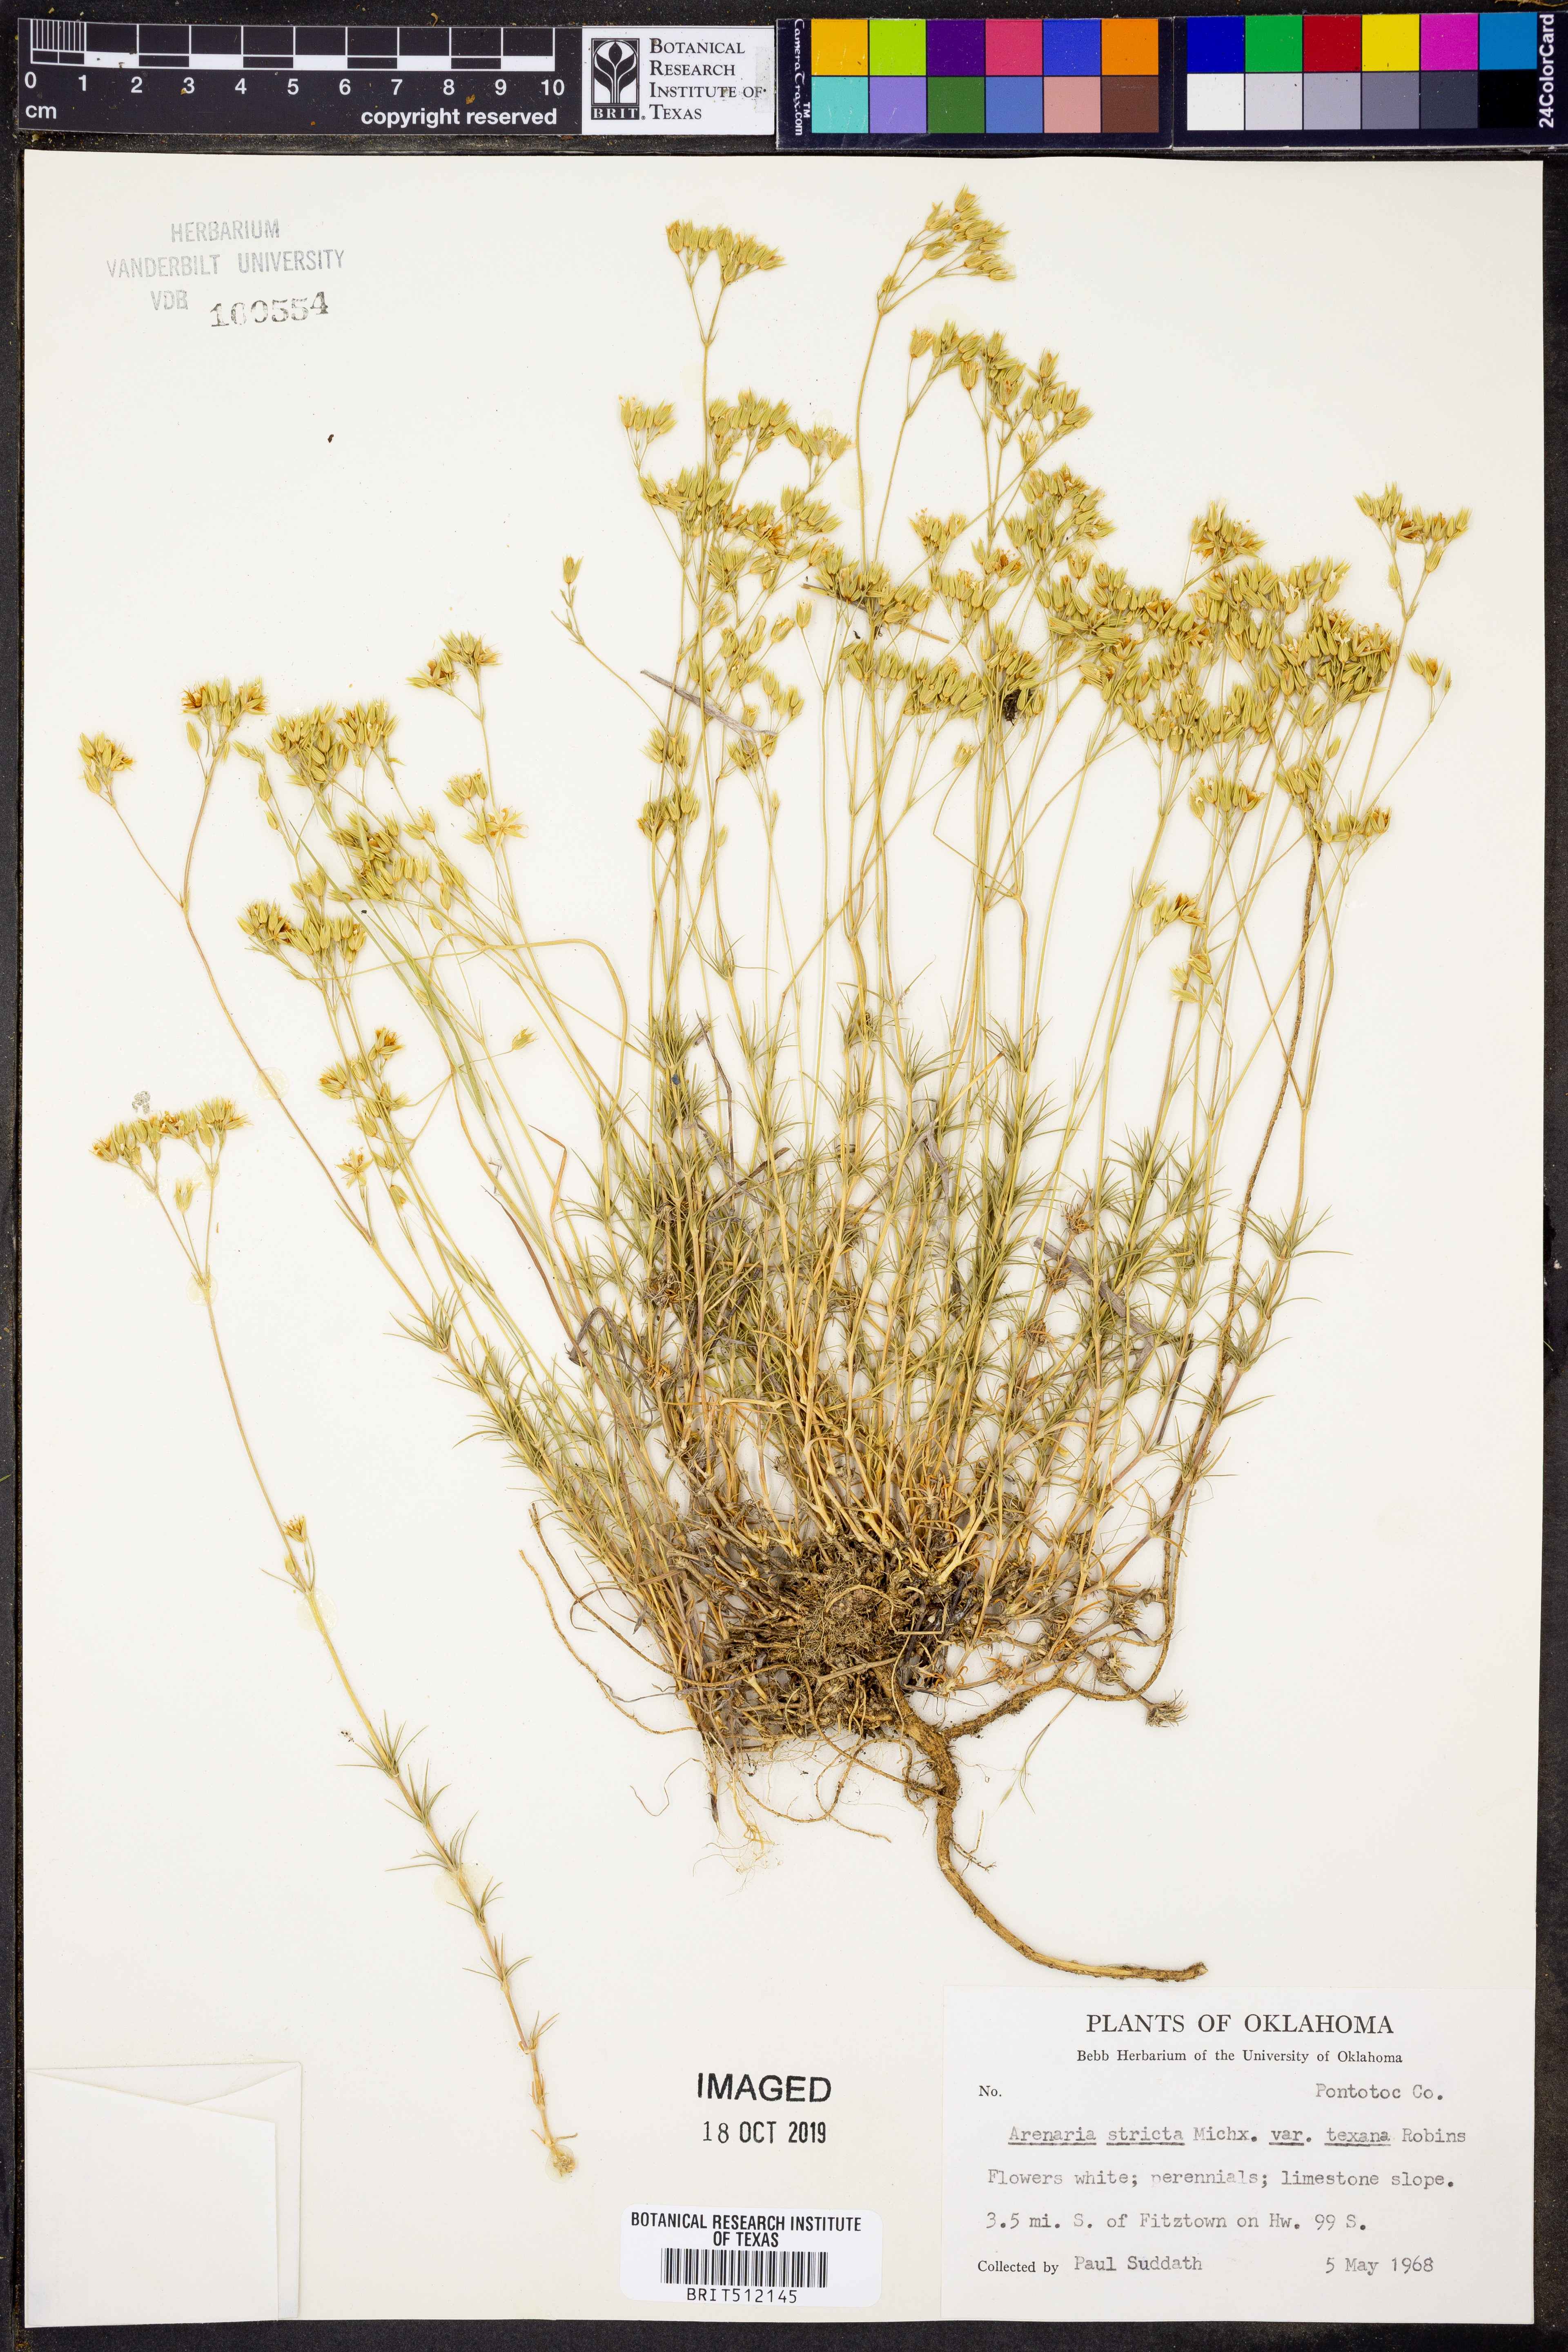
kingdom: Plantae
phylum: Tracheophyta
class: Magnoliopsida
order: Caryophyllales
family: Caryophyllaceae
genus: Sabulina
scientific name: Sabulina michauxii
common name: Michaux's stitchwort
